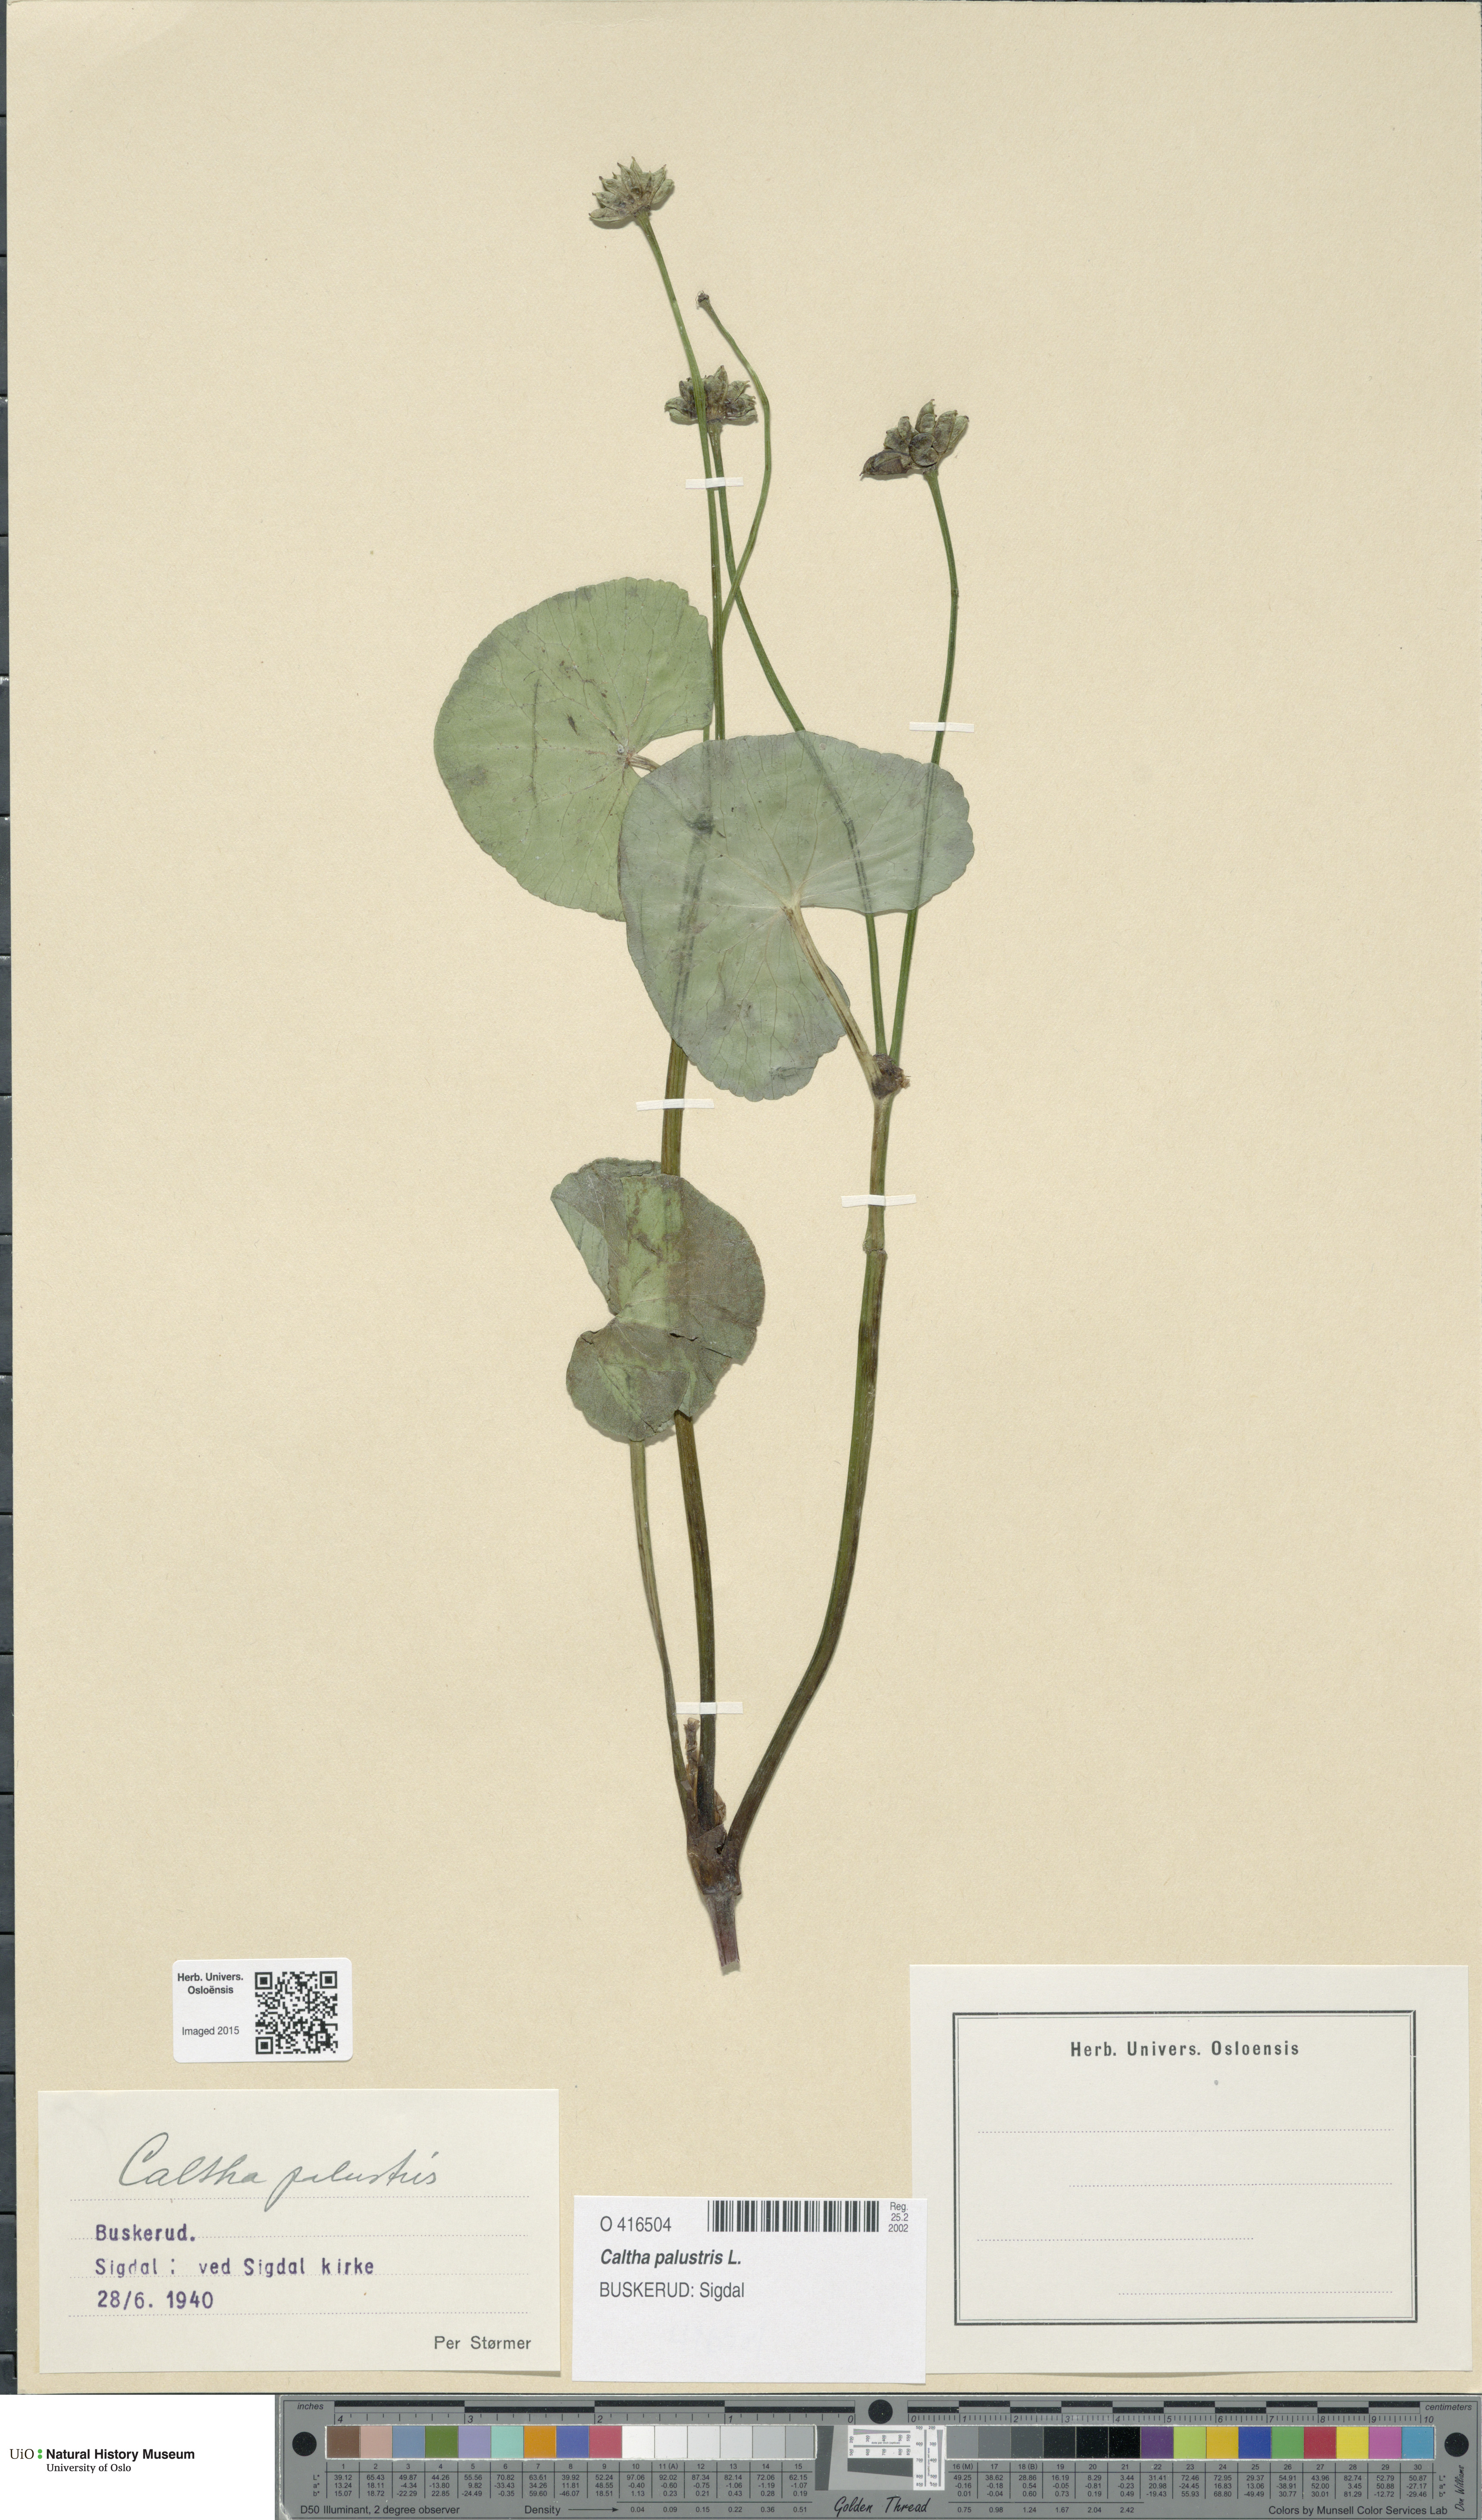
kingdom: Plantae
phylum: Tracheophyta
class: Magnoliopsida
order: Ranunculales
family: Ranunculaceae
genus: Caltha
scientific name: Caltha palustris
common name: Marsh marigold
